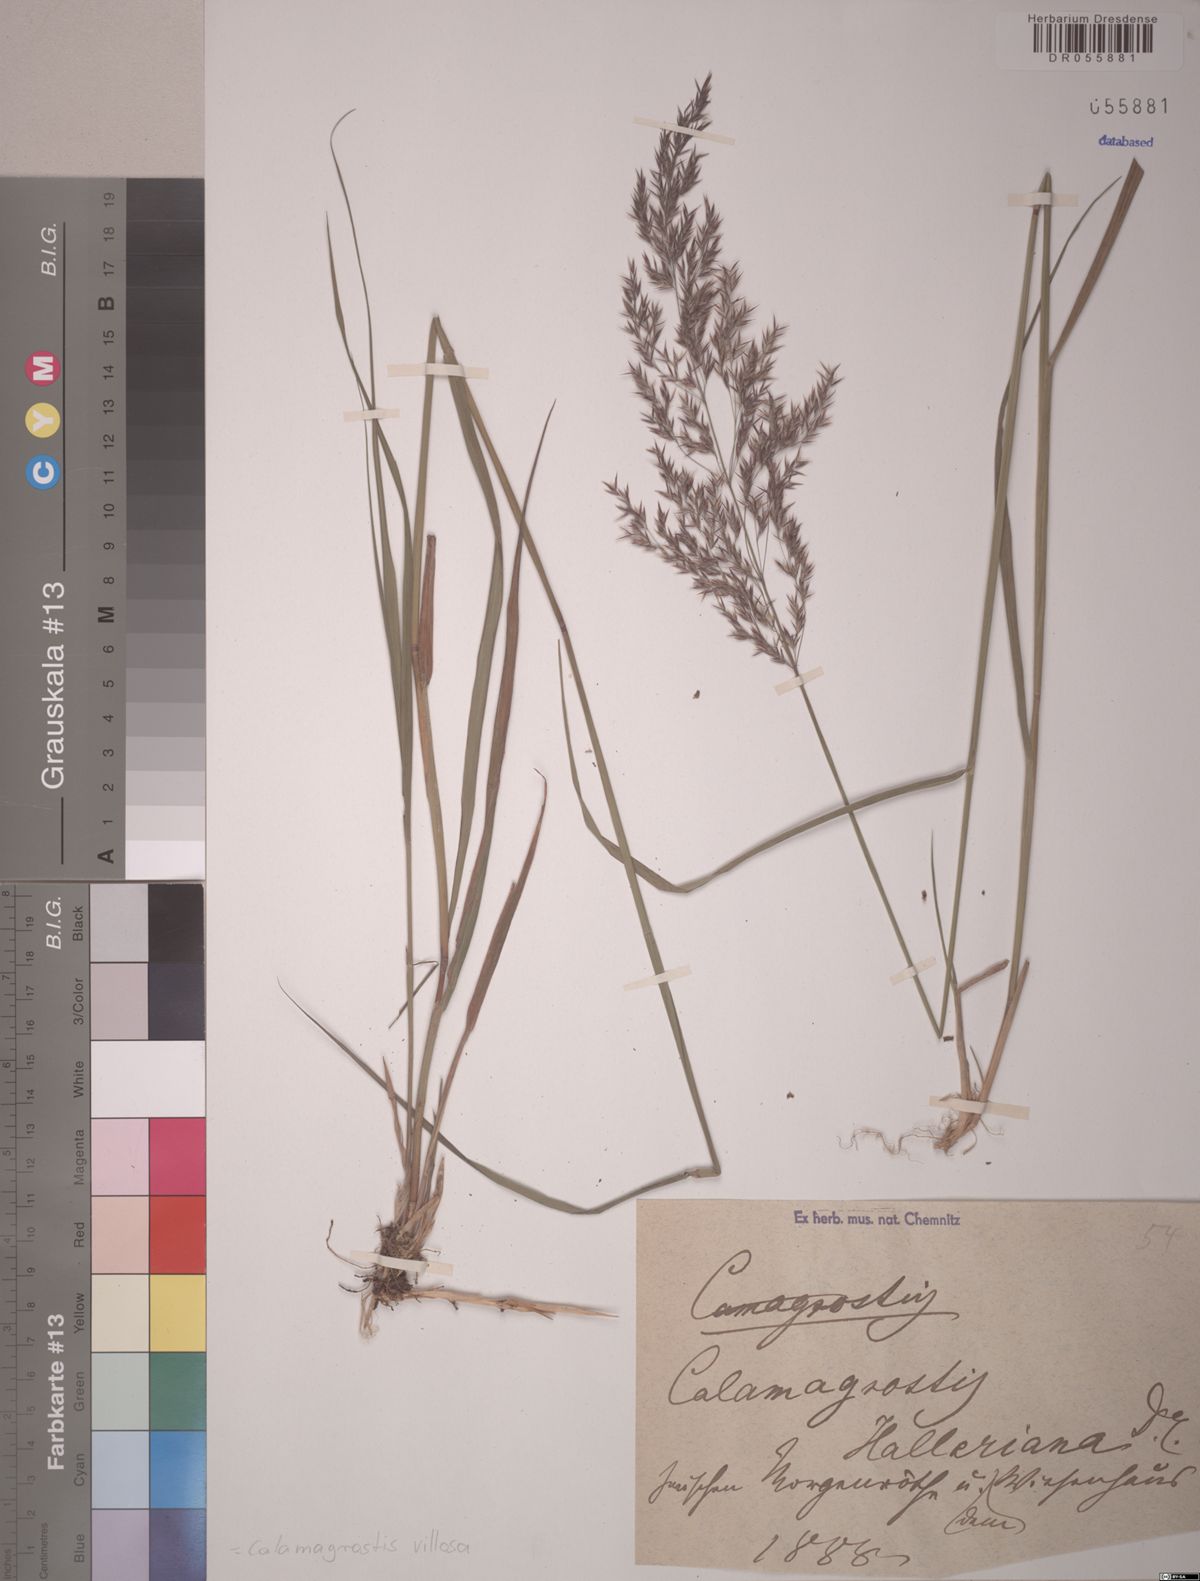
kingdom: Plantae
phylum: Tracheophyta
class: Liliopsida
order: Poales
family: Poaceae
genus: Calamagrostis
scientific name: Calamagrostis villosa
